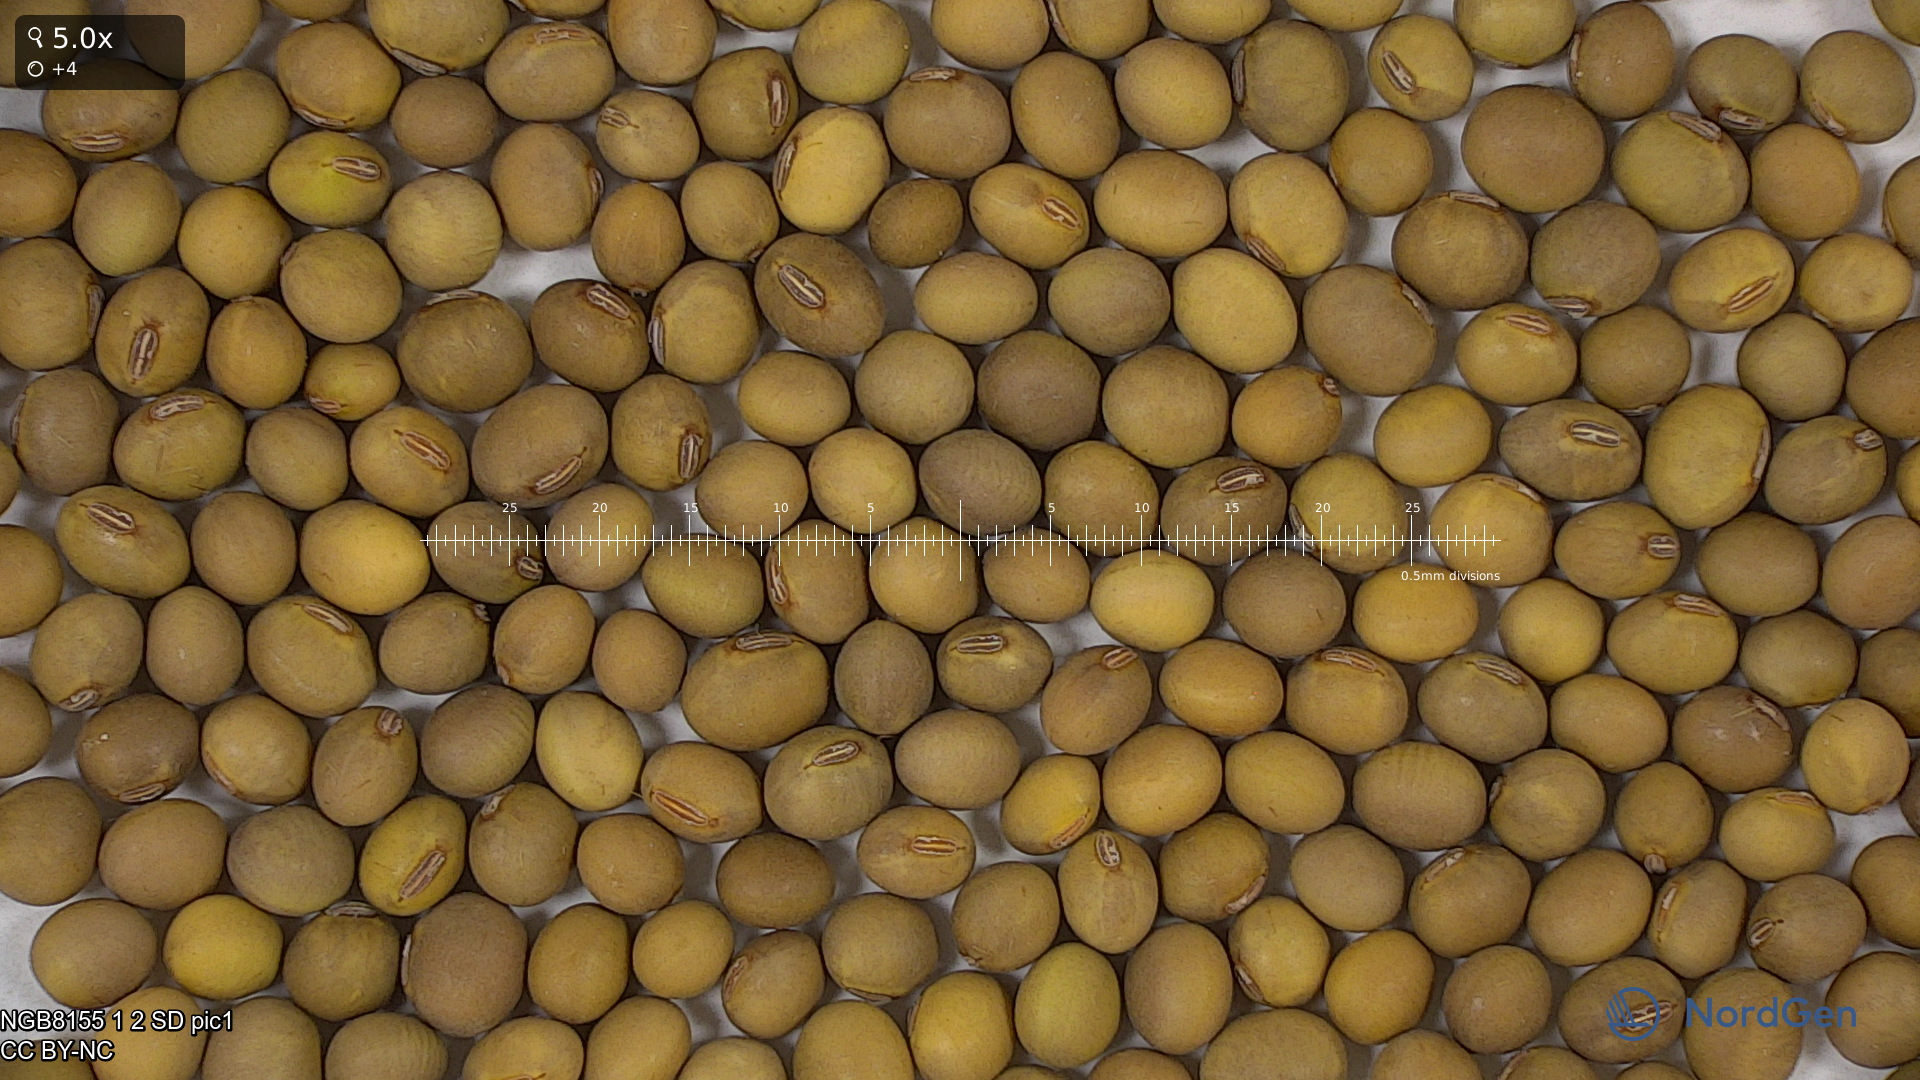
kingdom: Plantae
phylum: Tracheophyta
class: Magnoliopsida
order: Fabales
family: Fabaceae
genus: Glycine
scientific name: Glycine max
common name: Soya-bean
